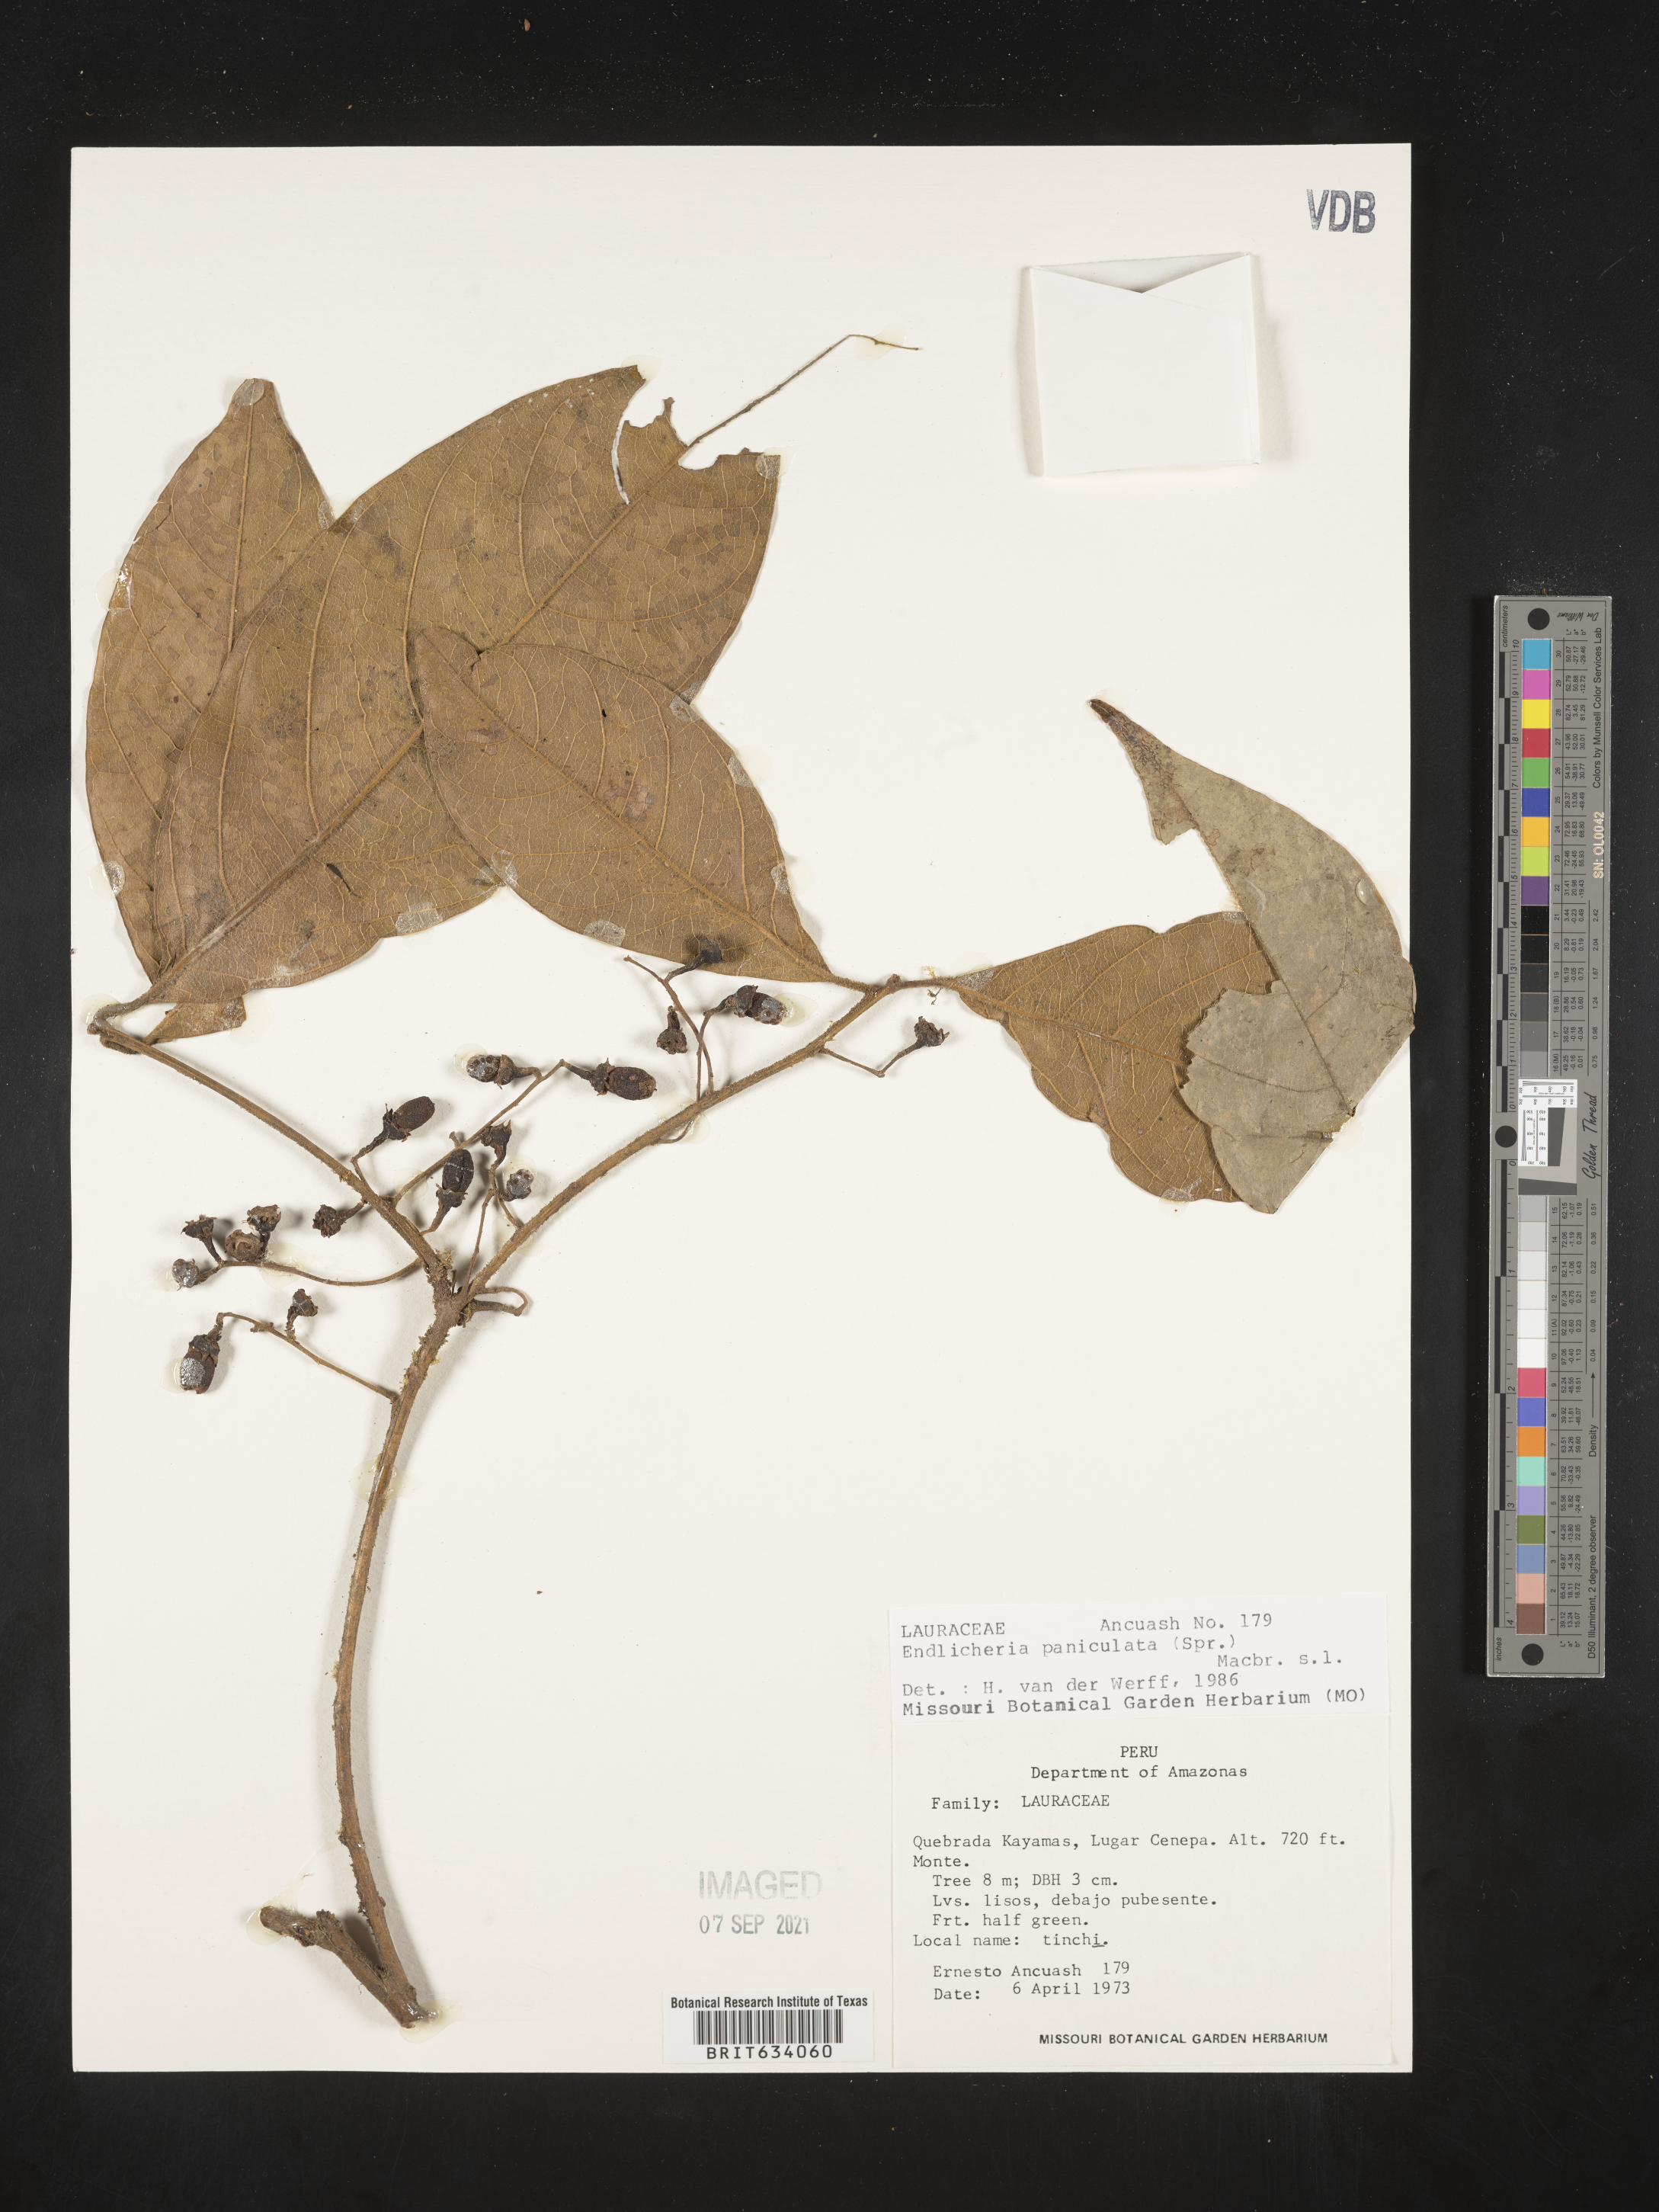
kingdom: Plantae
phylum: Tracheophyta
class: Magnoliopsida
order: Laurales
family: Lauraceae
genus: Endlicheria
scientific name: Endlicheria
